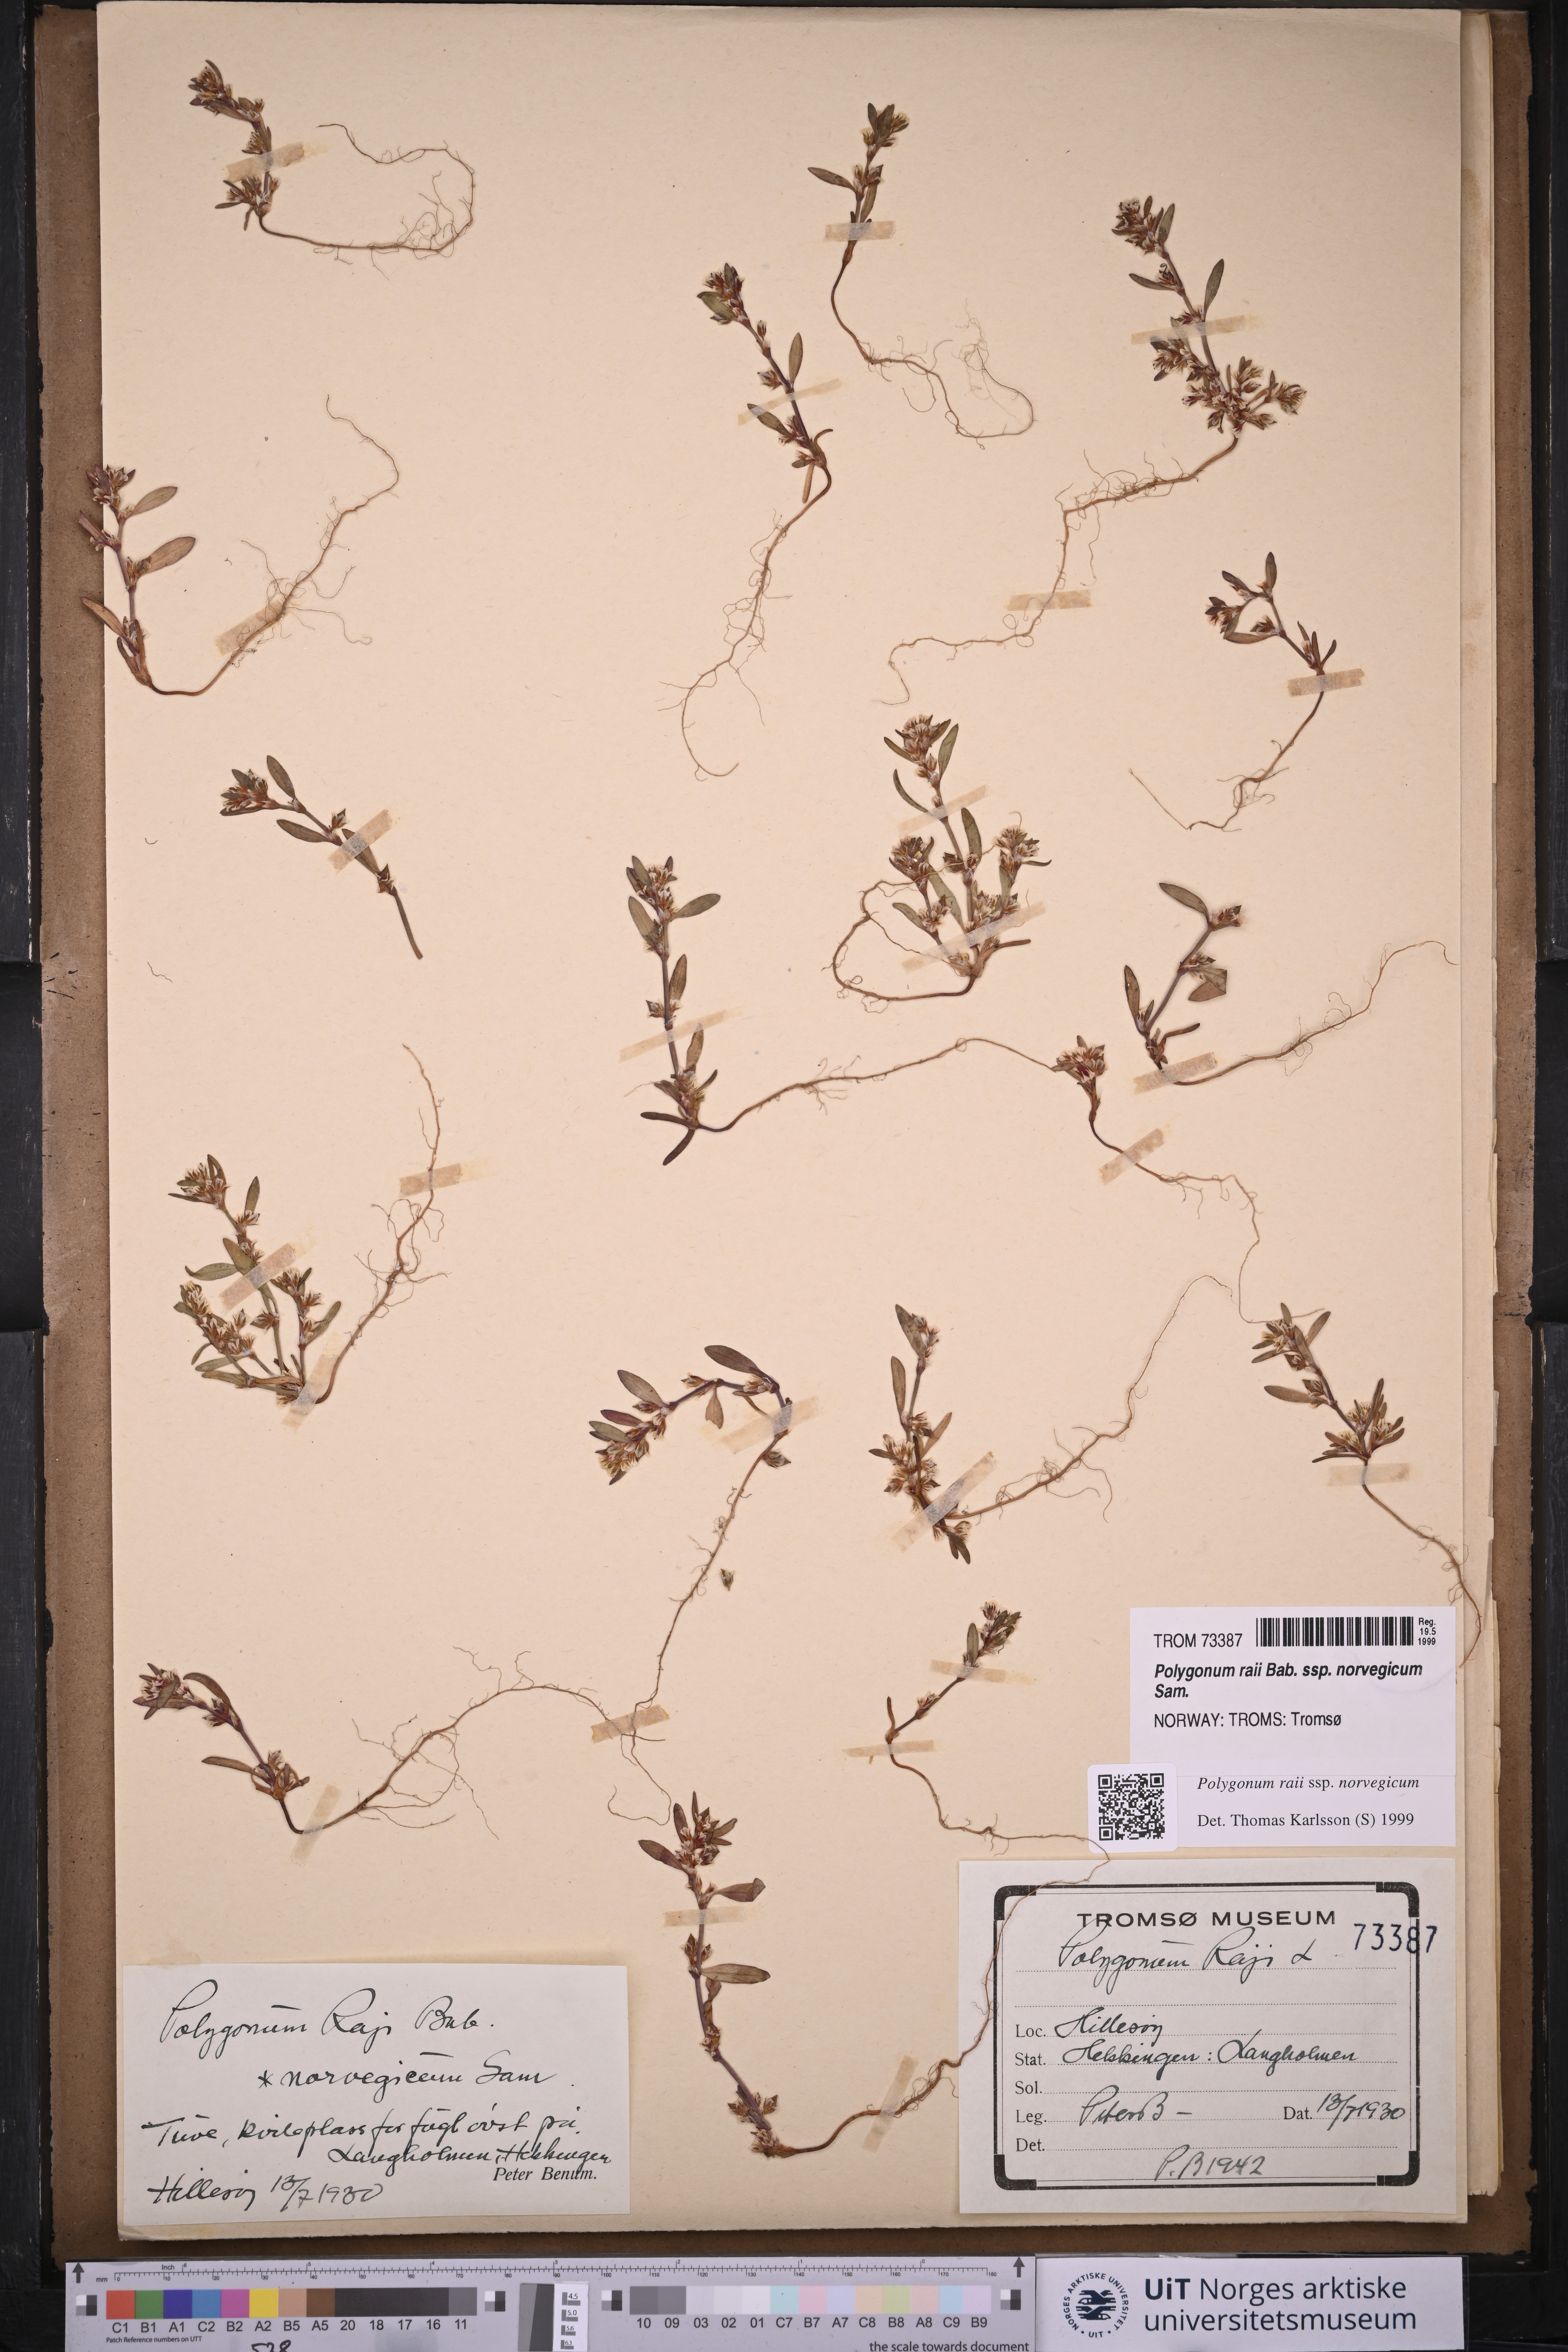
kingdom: Plantae
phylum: Tracheophyta
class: Magnoliopsida
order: Caryophyllales
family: Polygonaceae
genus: Polygonum
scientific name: Polygonum norvegicum
